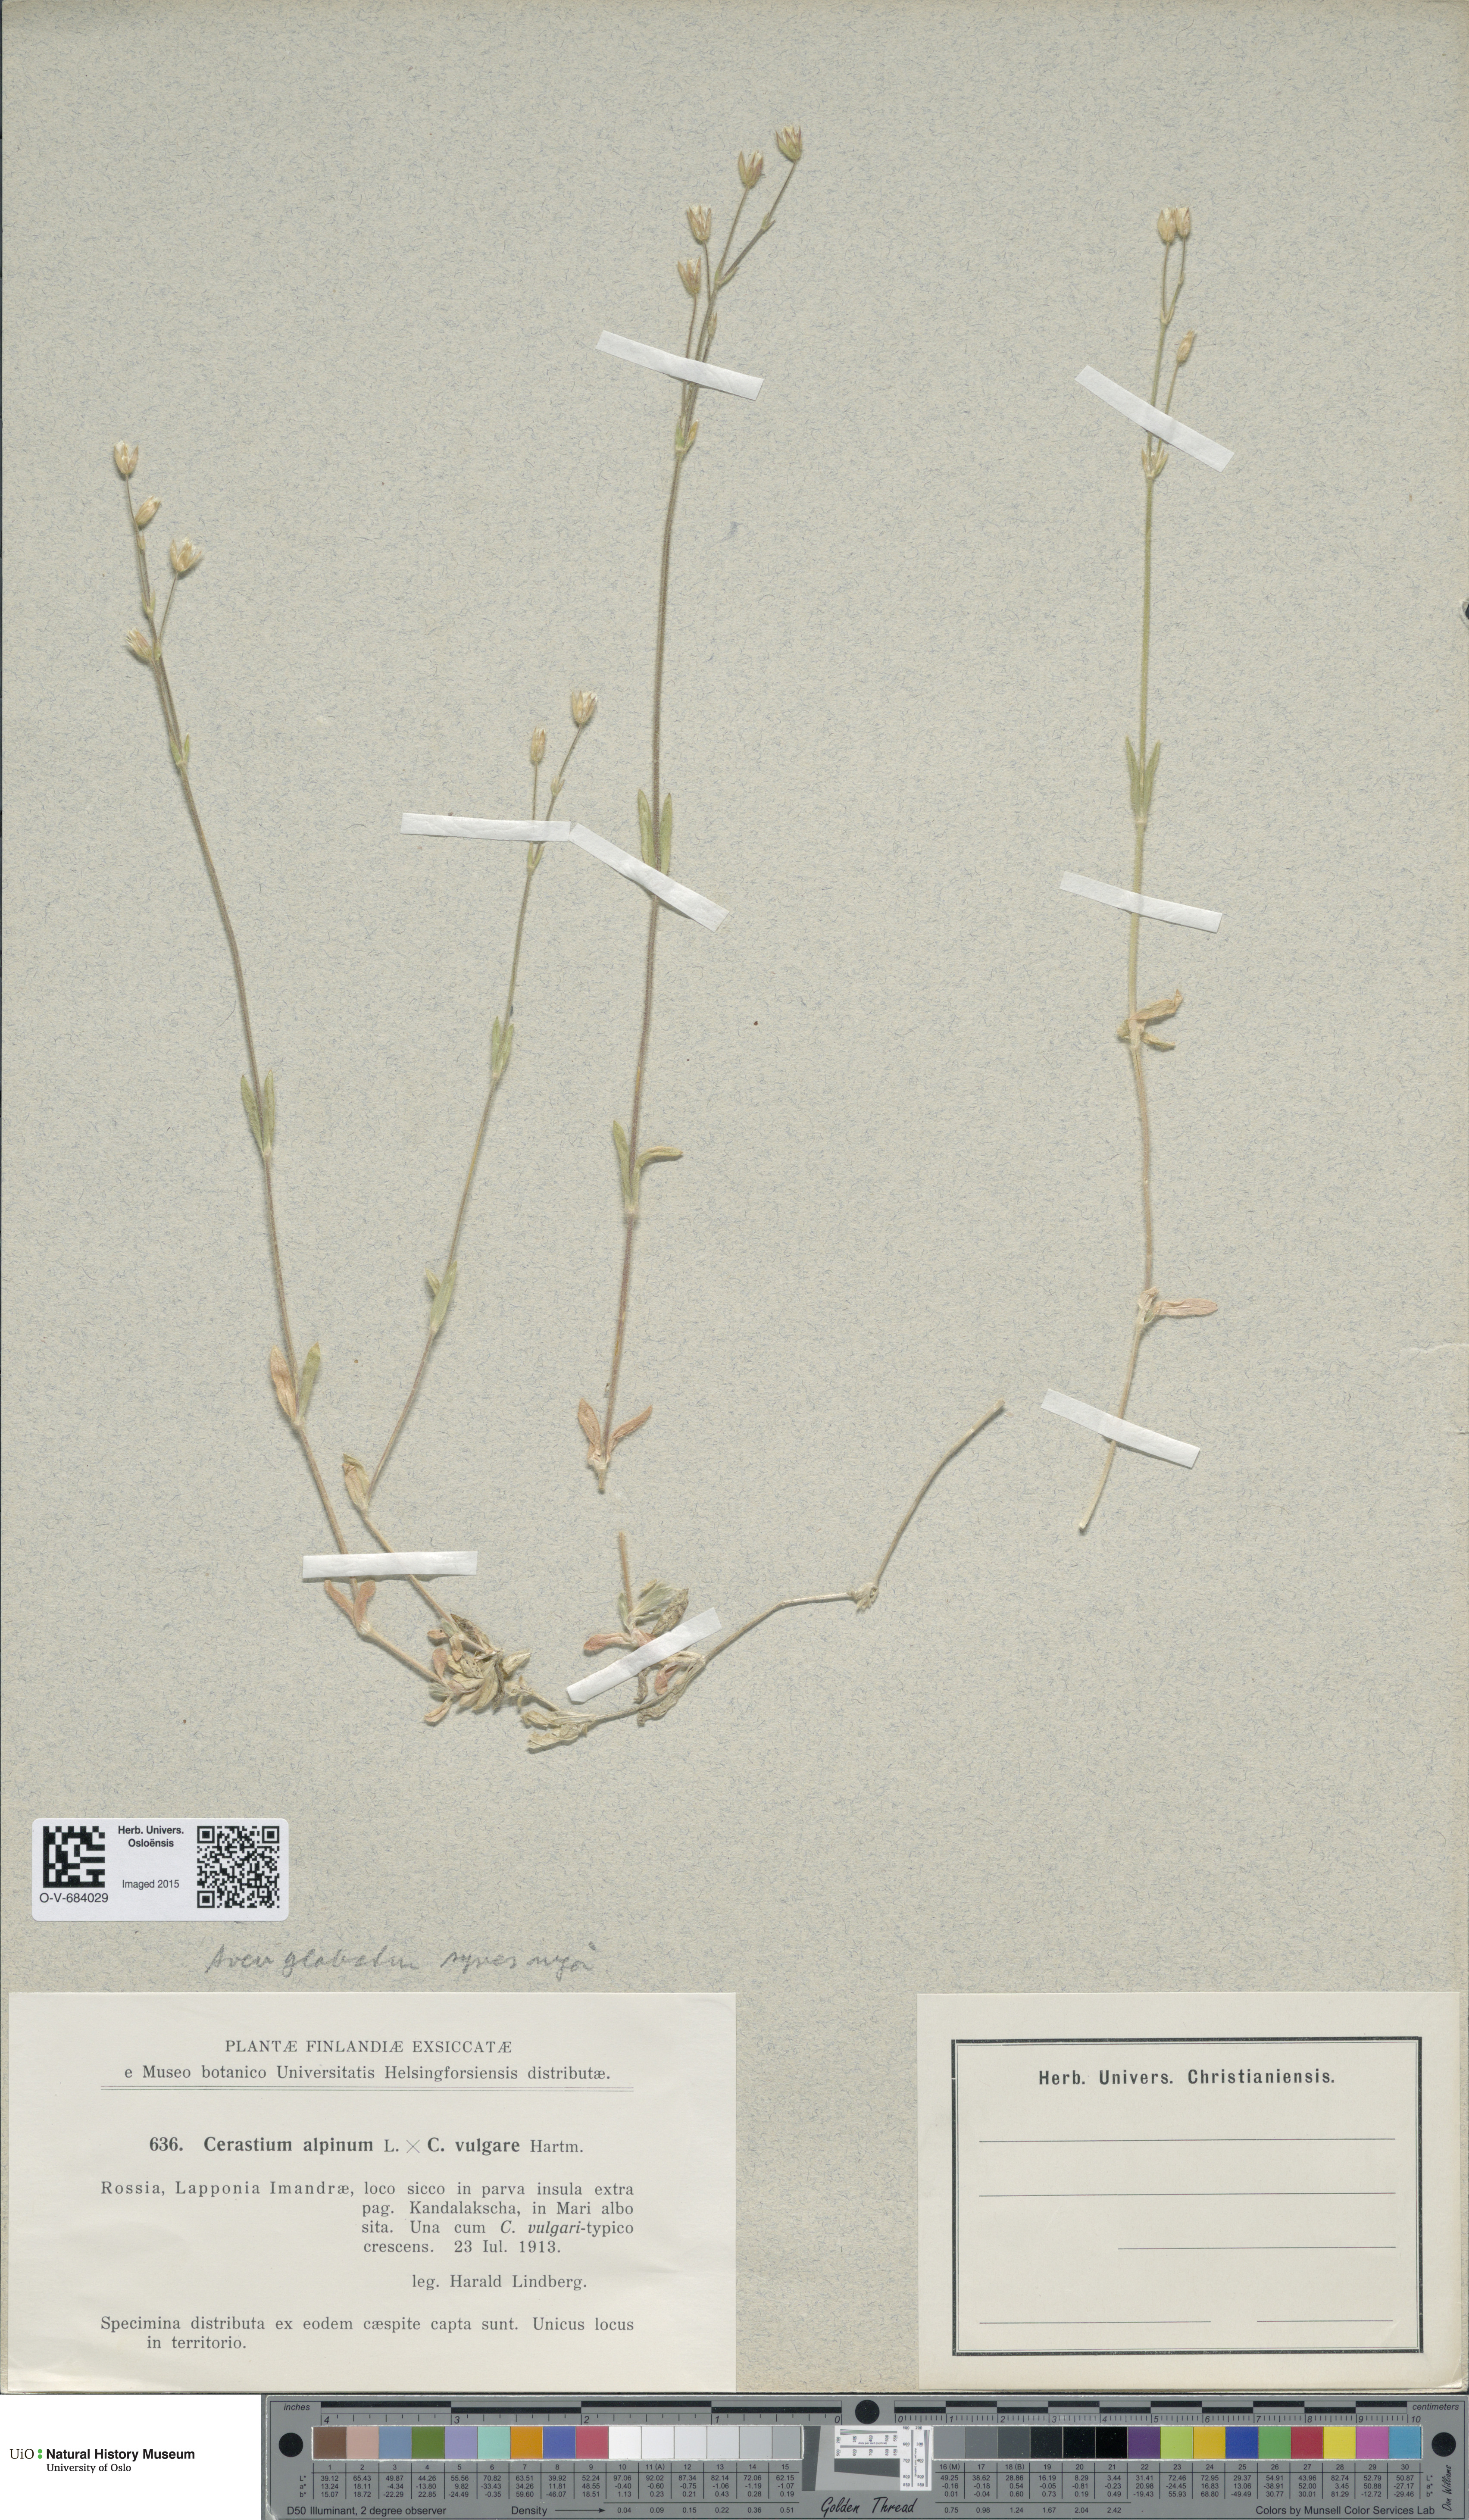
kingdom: Plantae
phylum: Tracheophyta
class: Magnoliopsida
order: Caryophyllales
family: Caryophyllaceae
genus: Cerastium
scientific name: Cerastium
